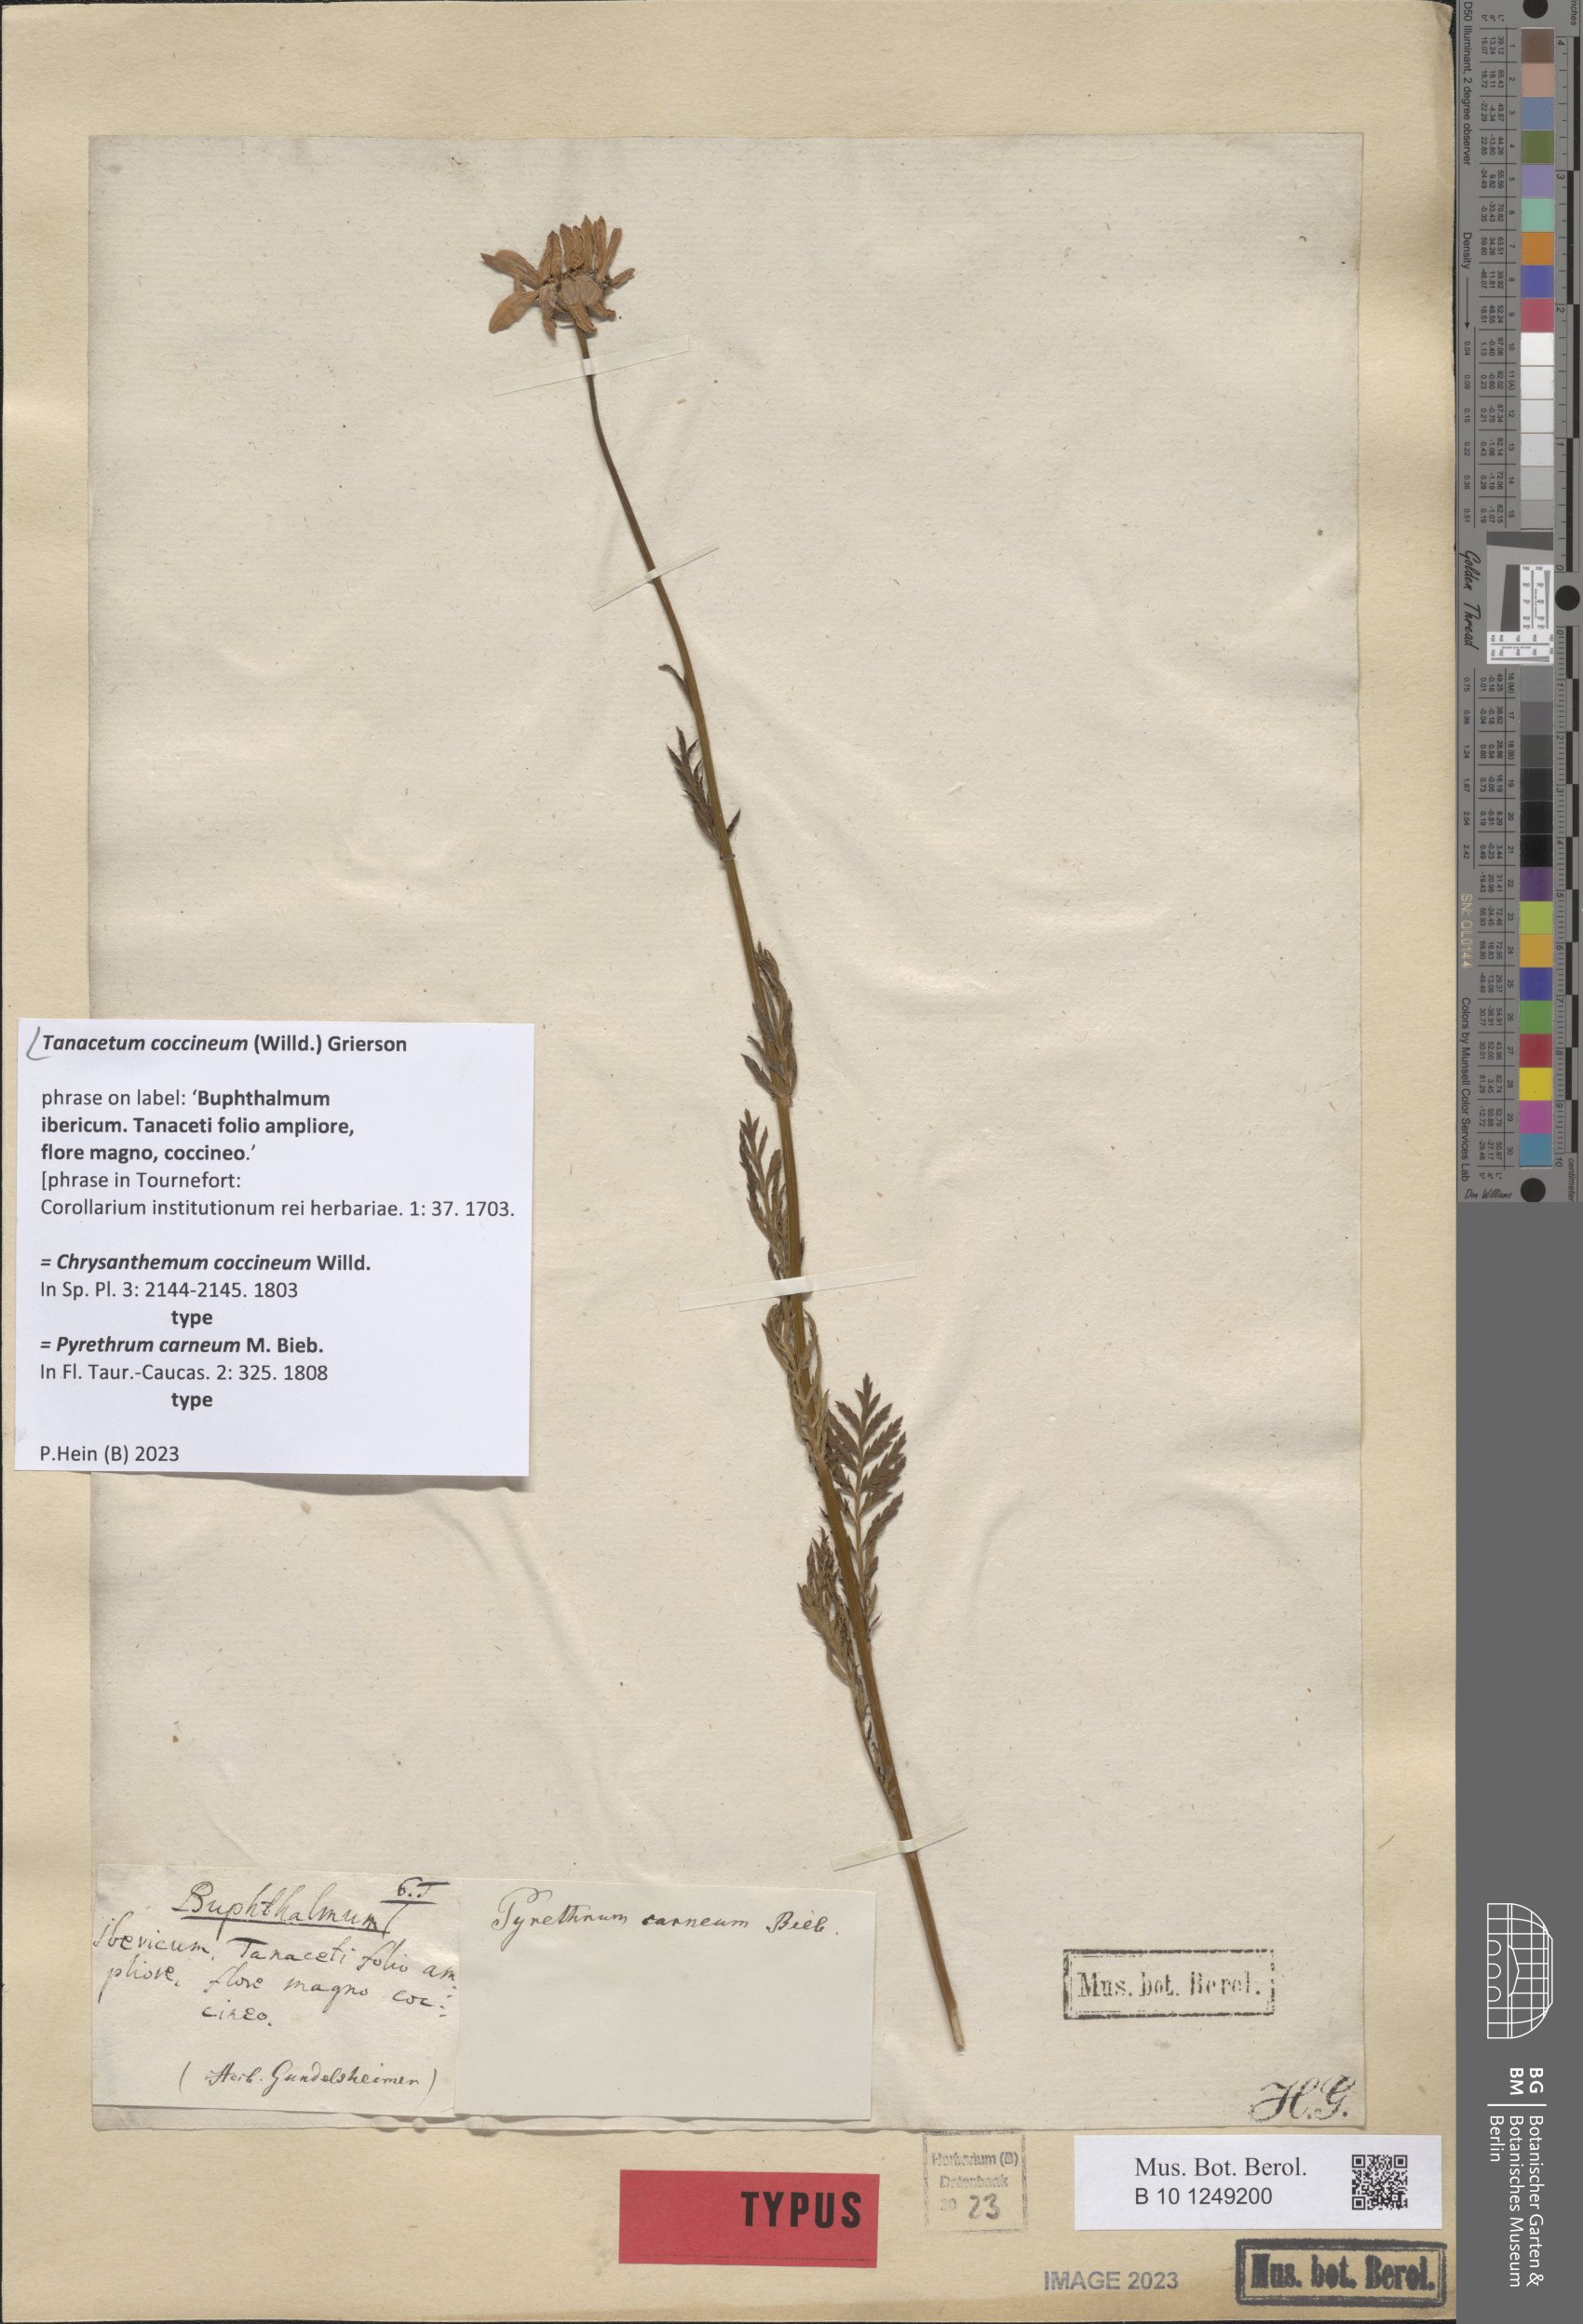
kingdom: Plantae
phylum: Tracheophyta
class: Magnoliopsida
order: Asterales
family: Asteraceae
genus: Tanacetum
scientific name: Tanacetum coccineum
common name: Pyrethum daisy
